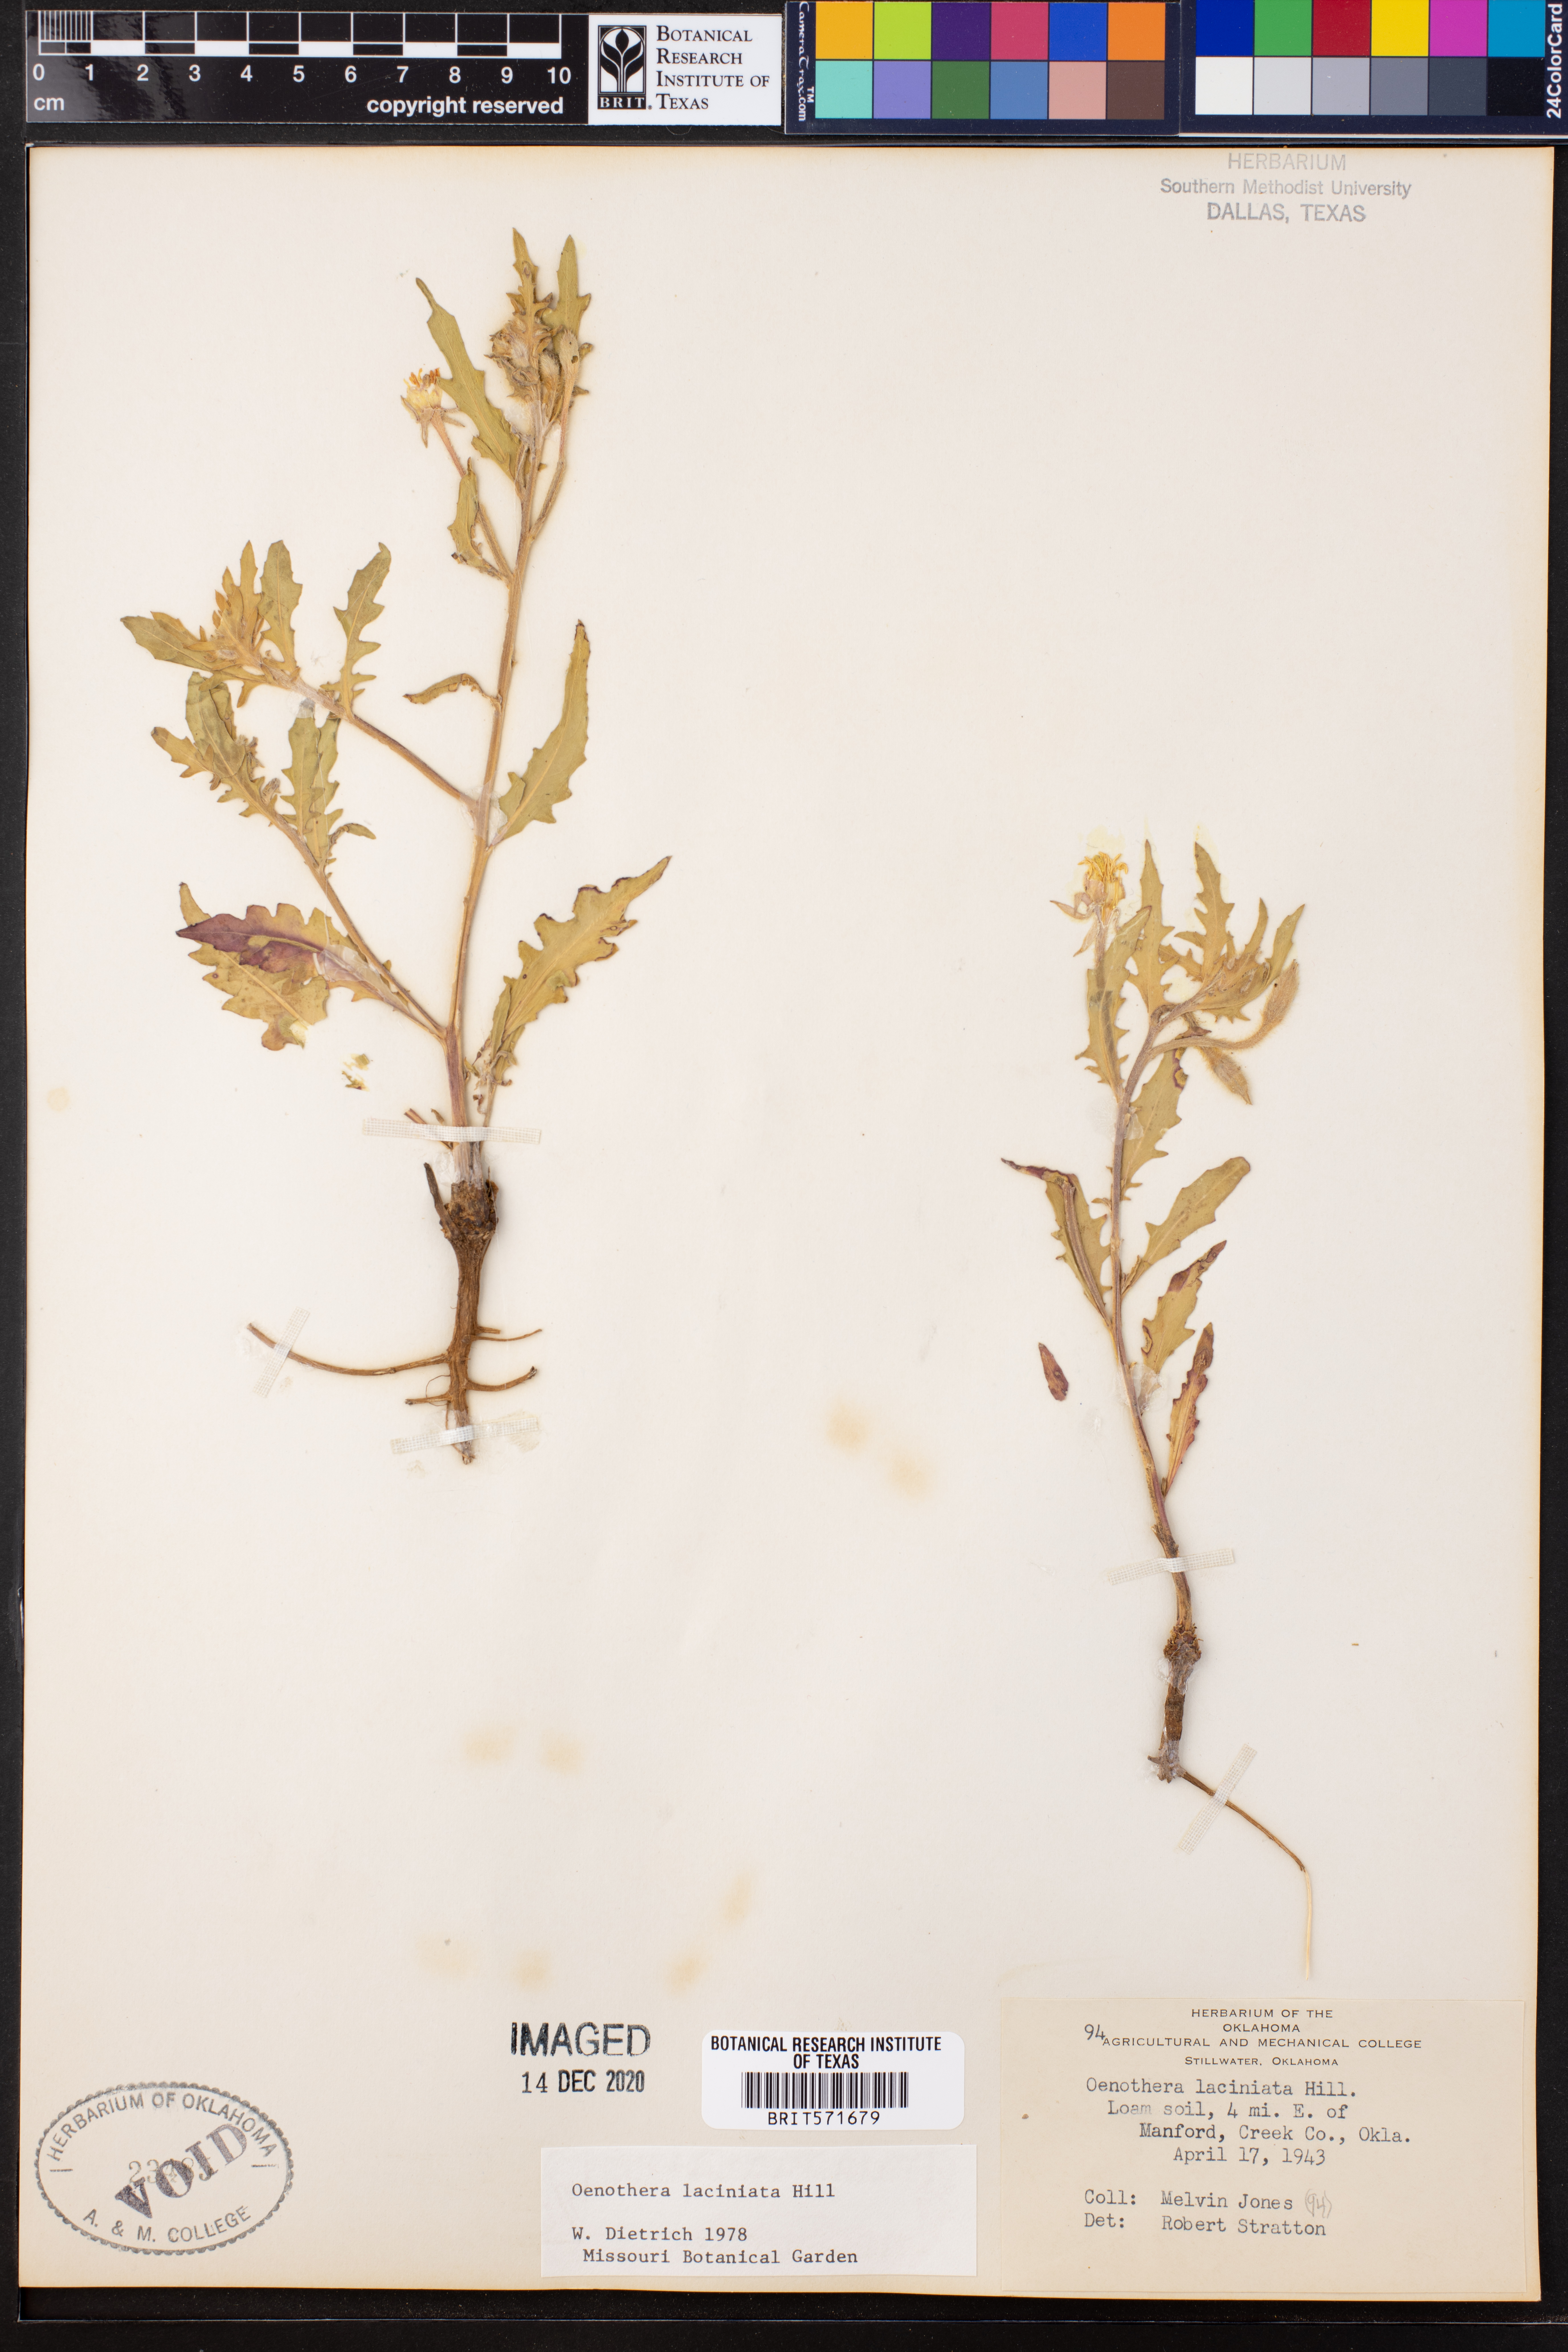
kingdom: Plantae
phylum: Tracheophyta
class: Magnoliopsida
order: Myrtales
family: Onagraceae
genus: Oenothera
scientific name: Oenothera laciniata
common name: Cut-leaved evening-primrose
